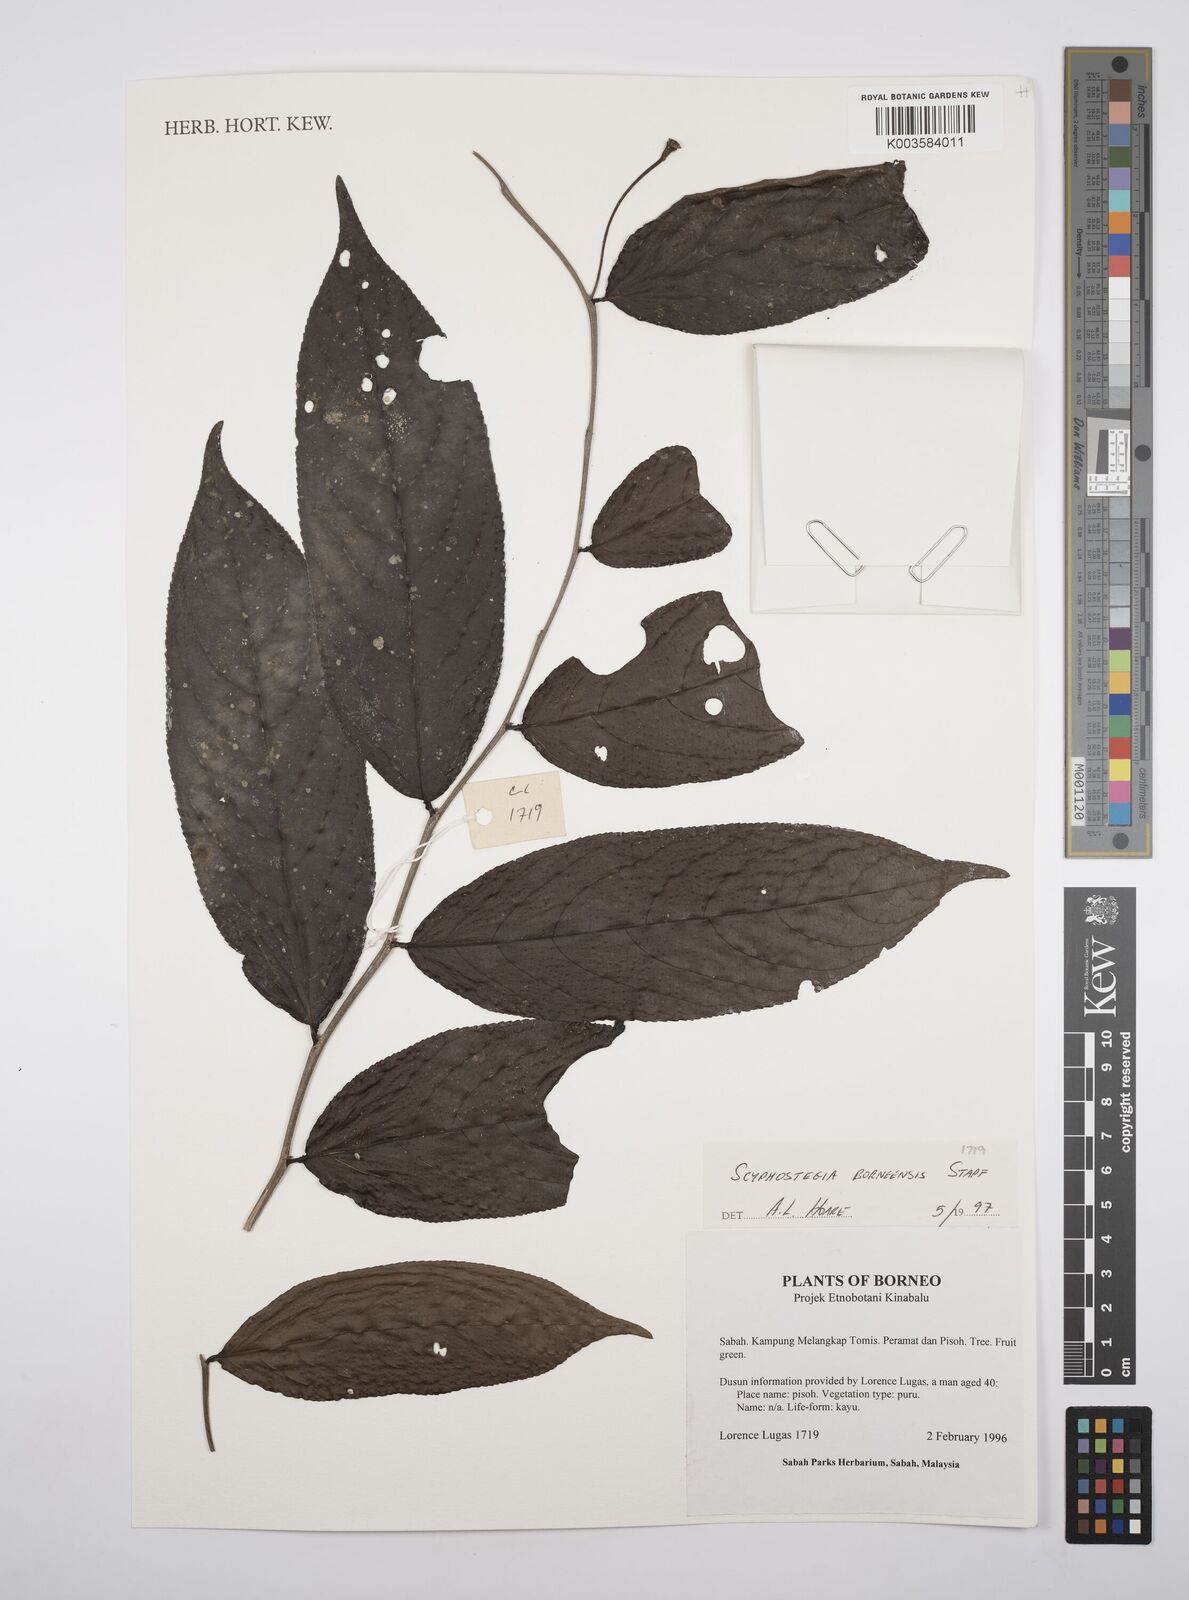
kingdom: Plantae
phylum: Tracheophyta
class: Magnoliopsida
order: Malpighiales
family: Salicaceae
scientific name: Salicaceae
